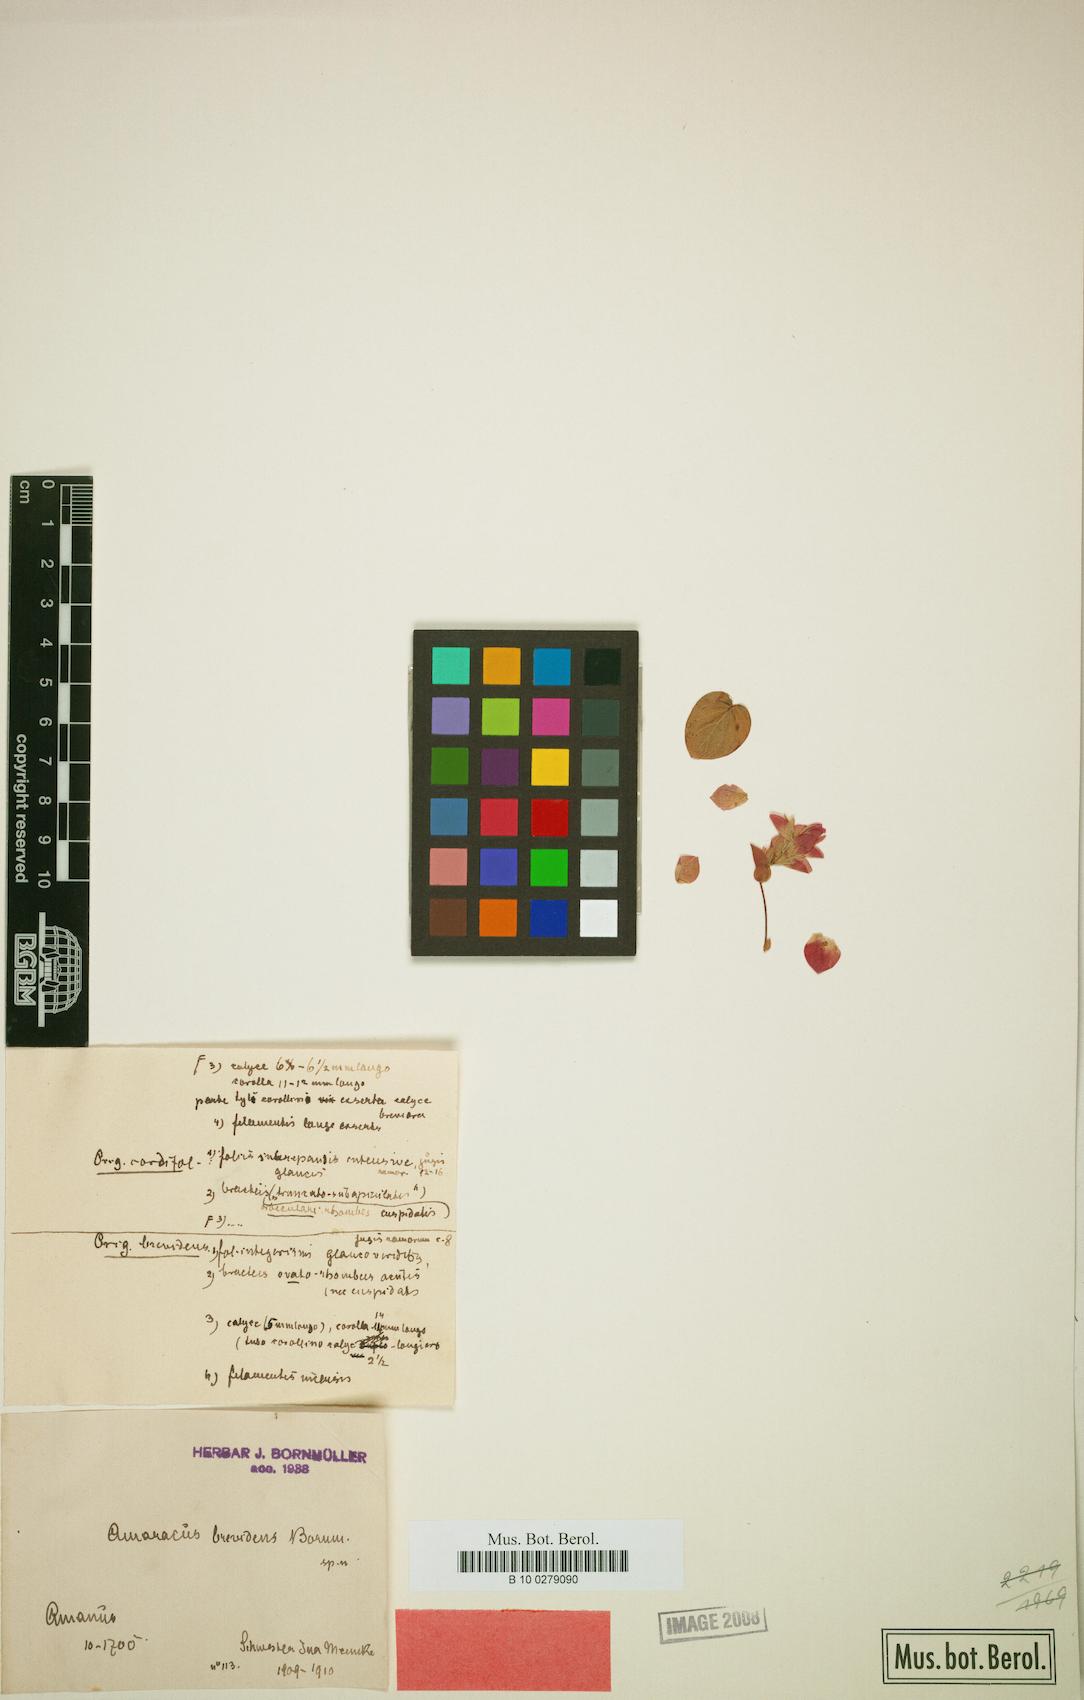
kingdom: Plantae
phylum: Tracheophyta
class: Magnoliopsida
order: Lamiales
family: Lamiaceae
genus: Origanum
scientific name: Origanum brevidens
